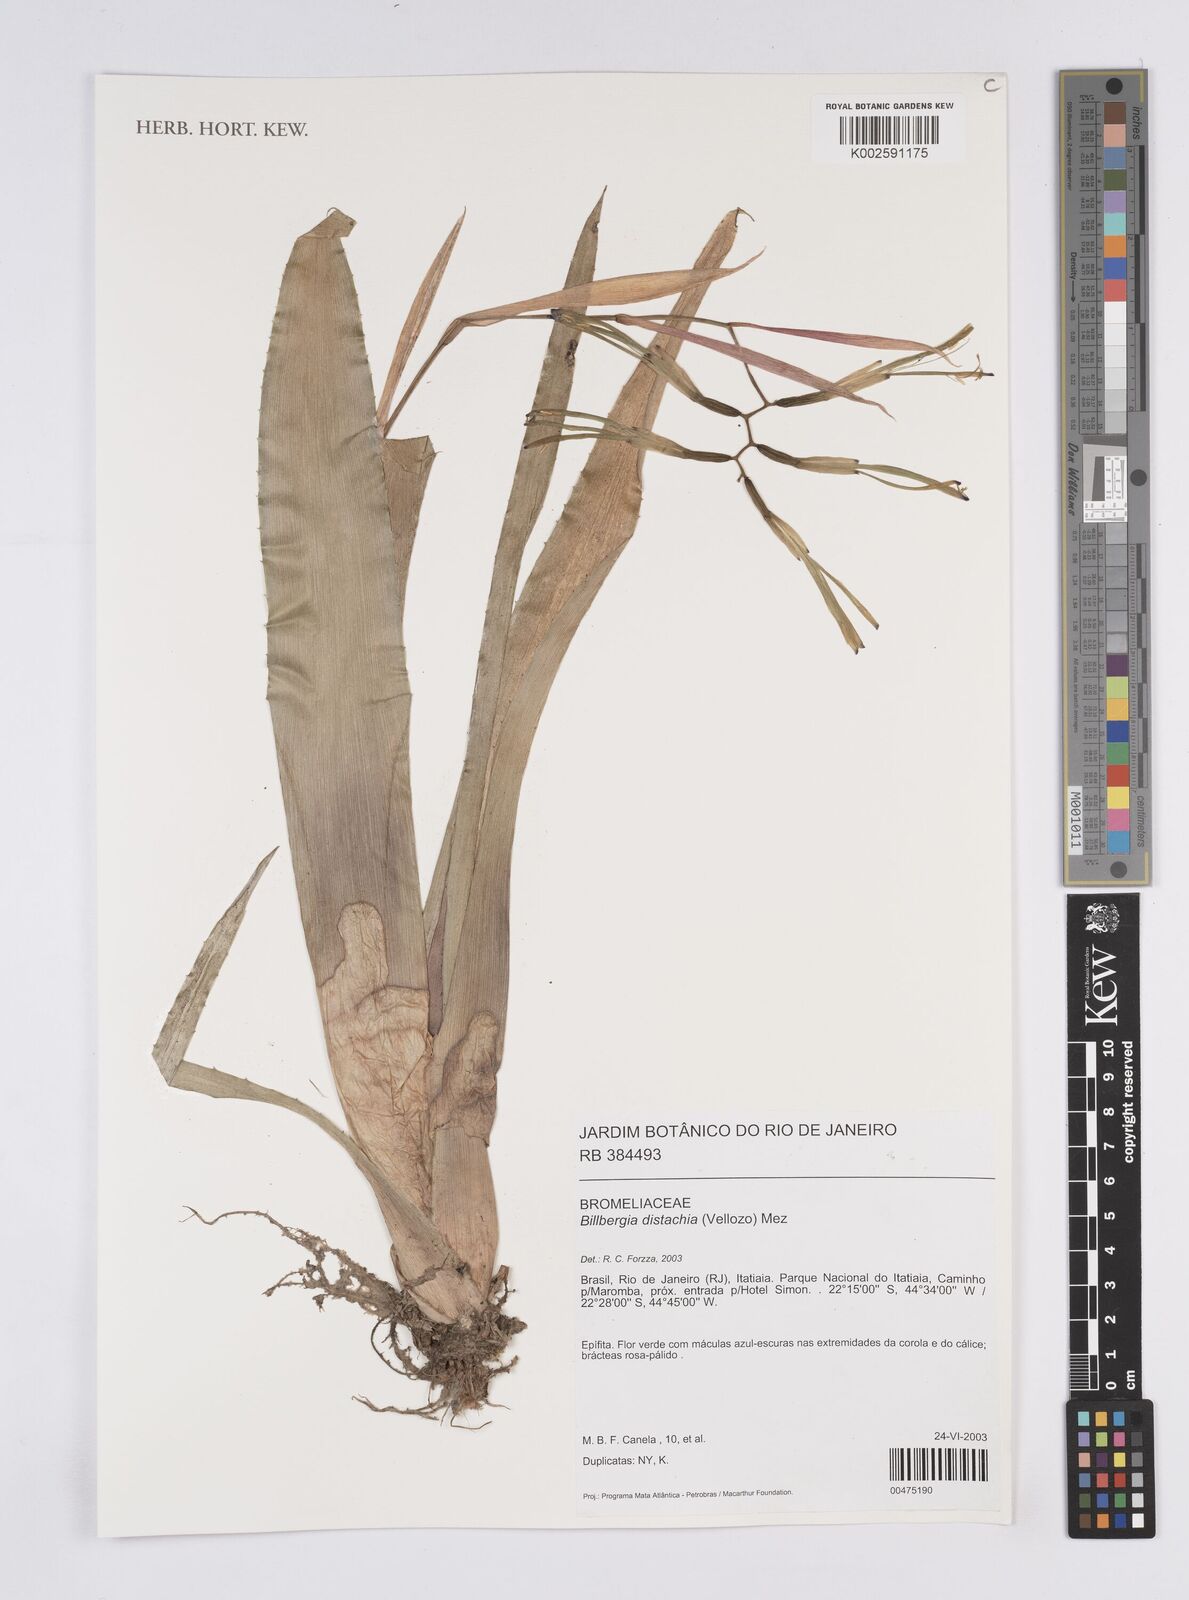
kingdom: Plantae
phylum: Tracheophyta
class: Liliopsida
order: Poales
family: Bromeliaceae
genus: Billbergia
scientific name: Billbergia distachia
